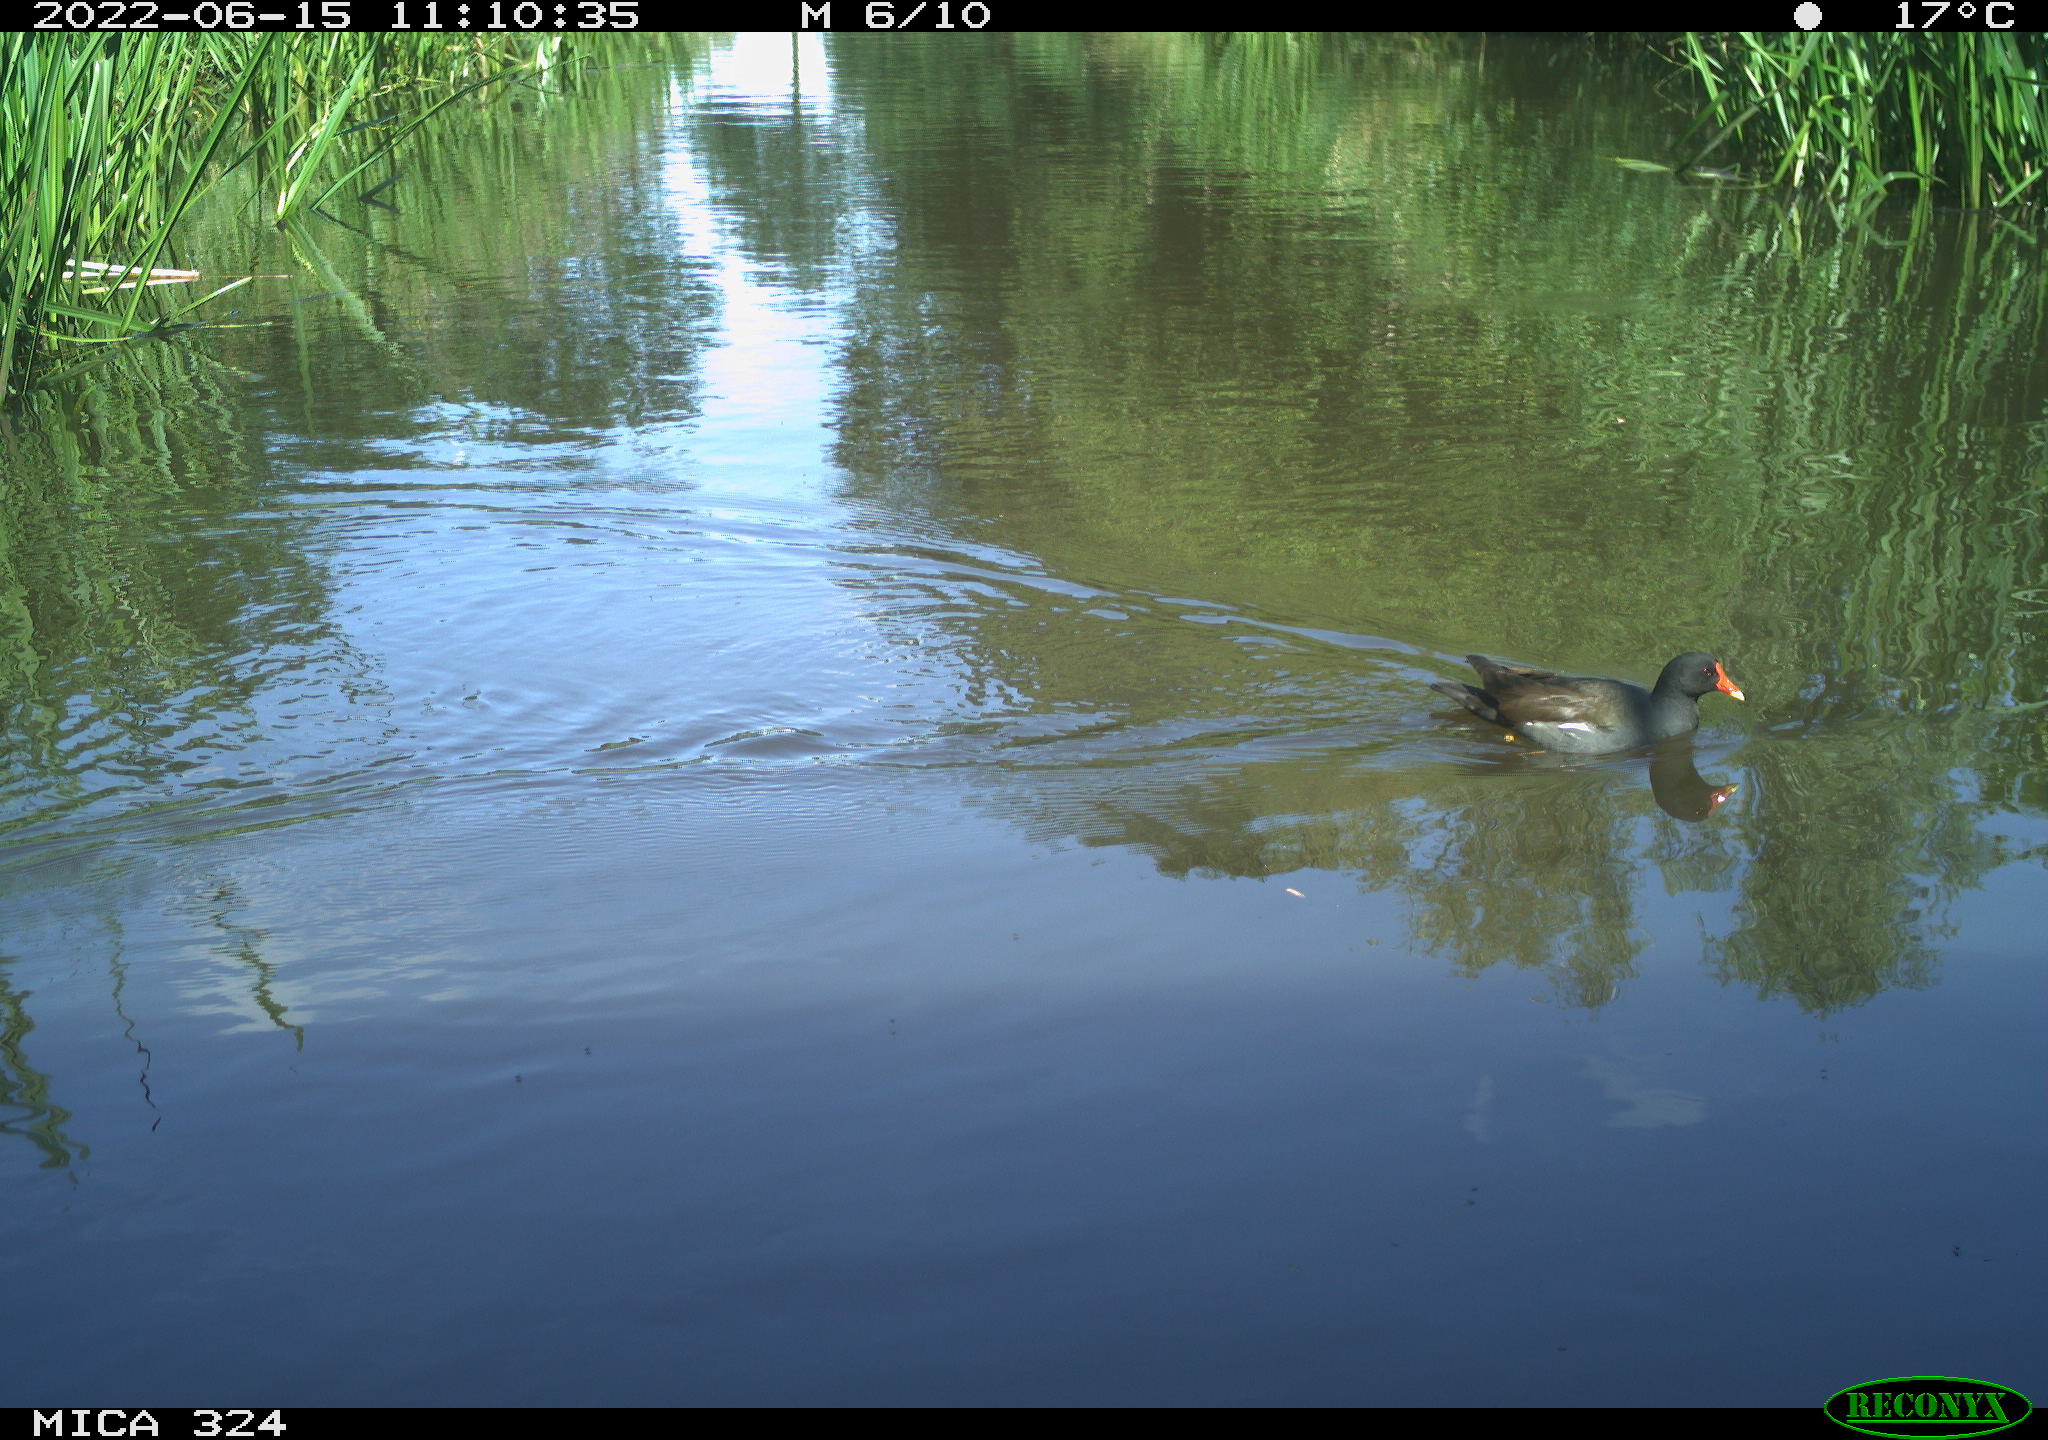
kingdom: Animalia
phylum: Chordata
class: Aves
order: Gruiformes
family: Rallidae
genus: Gallinula
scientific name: Gallinula chloropus
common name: Common moorhen
